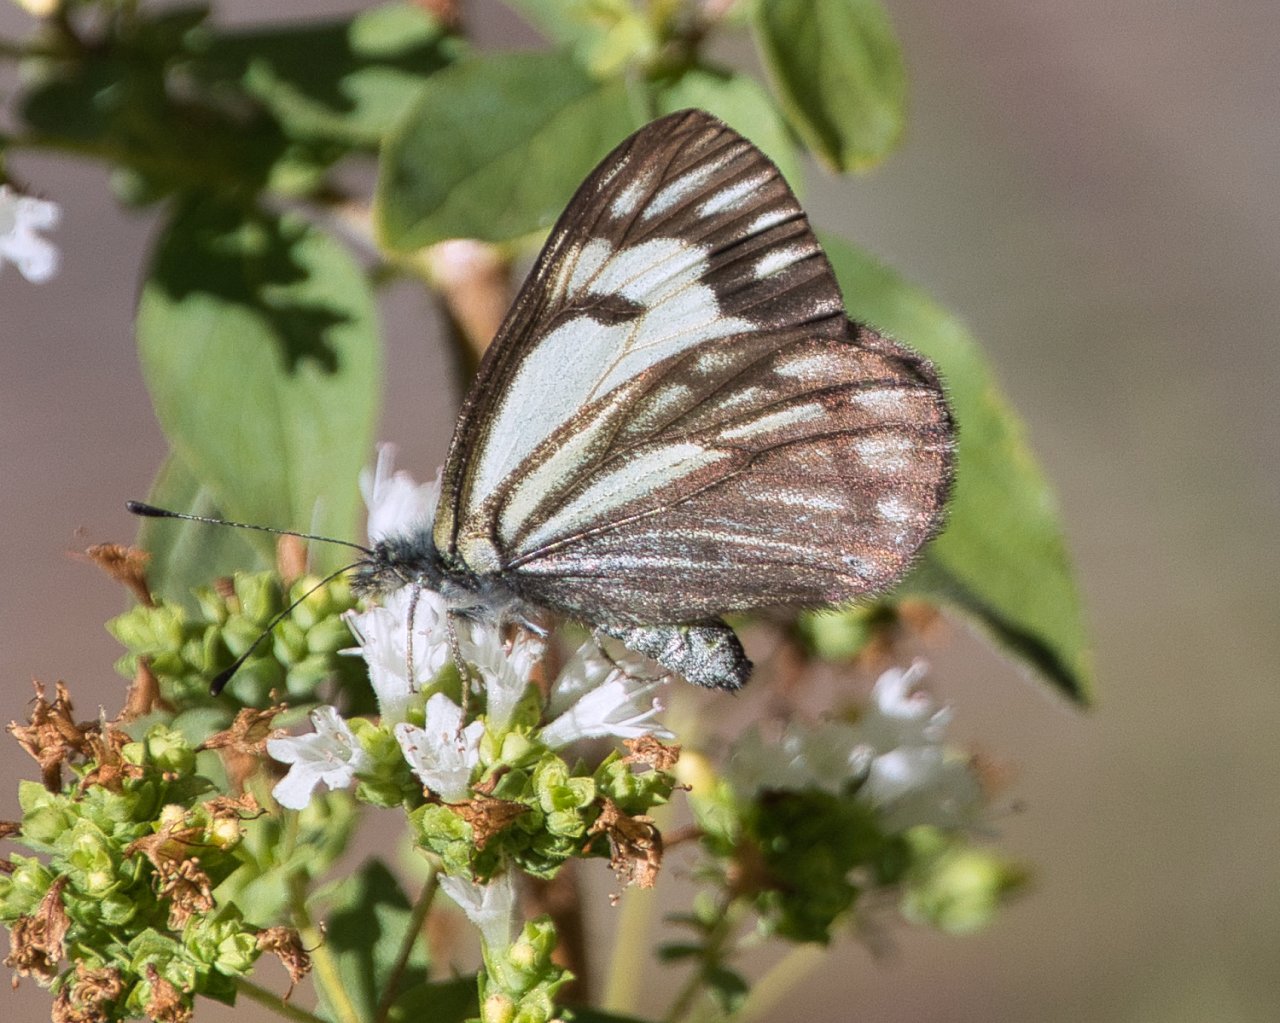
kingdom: Animalia
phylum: Arthropoda
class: Insecta
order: Lepidoptera
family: Pieridae
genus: Neophasia
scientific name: Neophasia menapia
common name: Pine White
